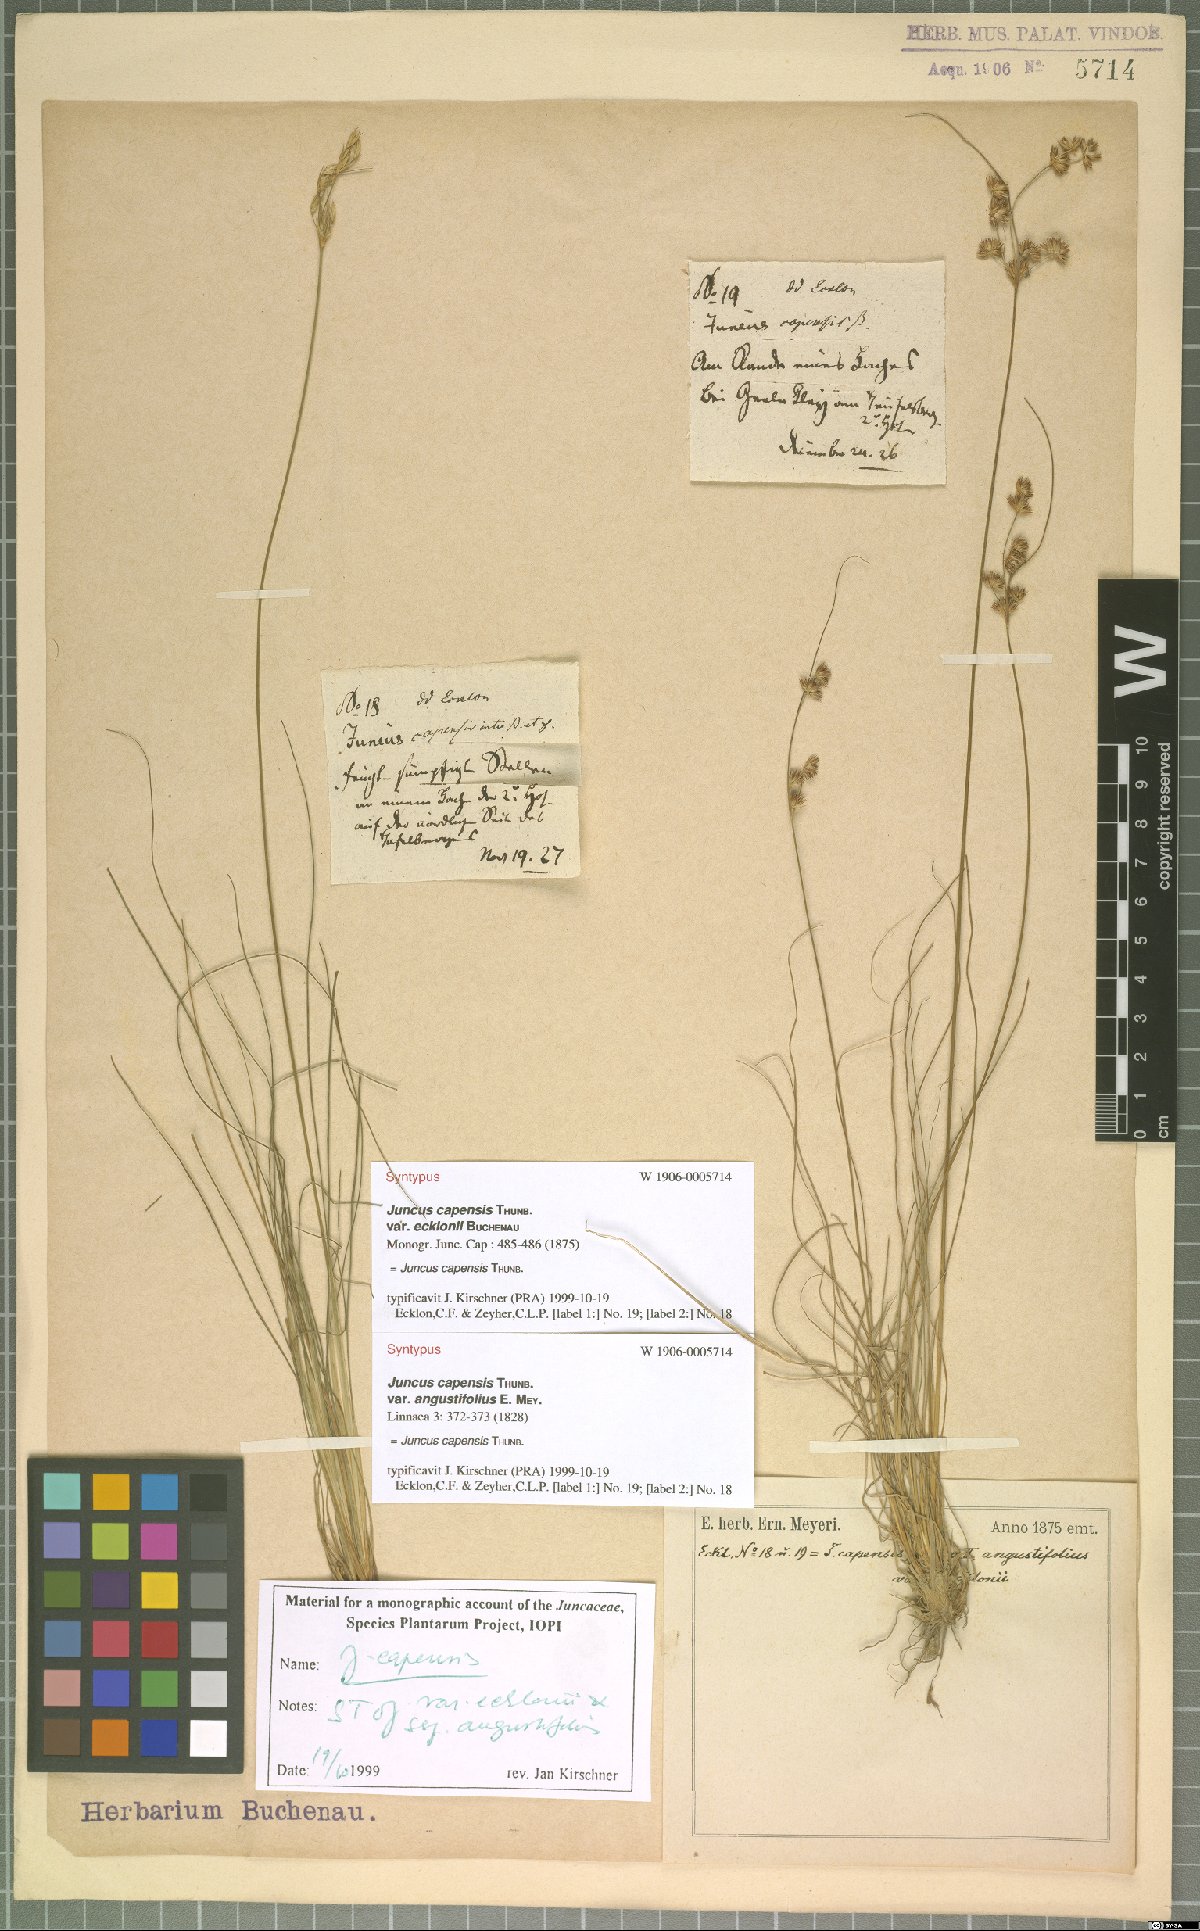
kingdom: Plantae
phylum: Tracheophyta
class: Liliopsida
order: Poales
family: Juncaceae
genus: Juncus
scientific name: Juncus capensis
